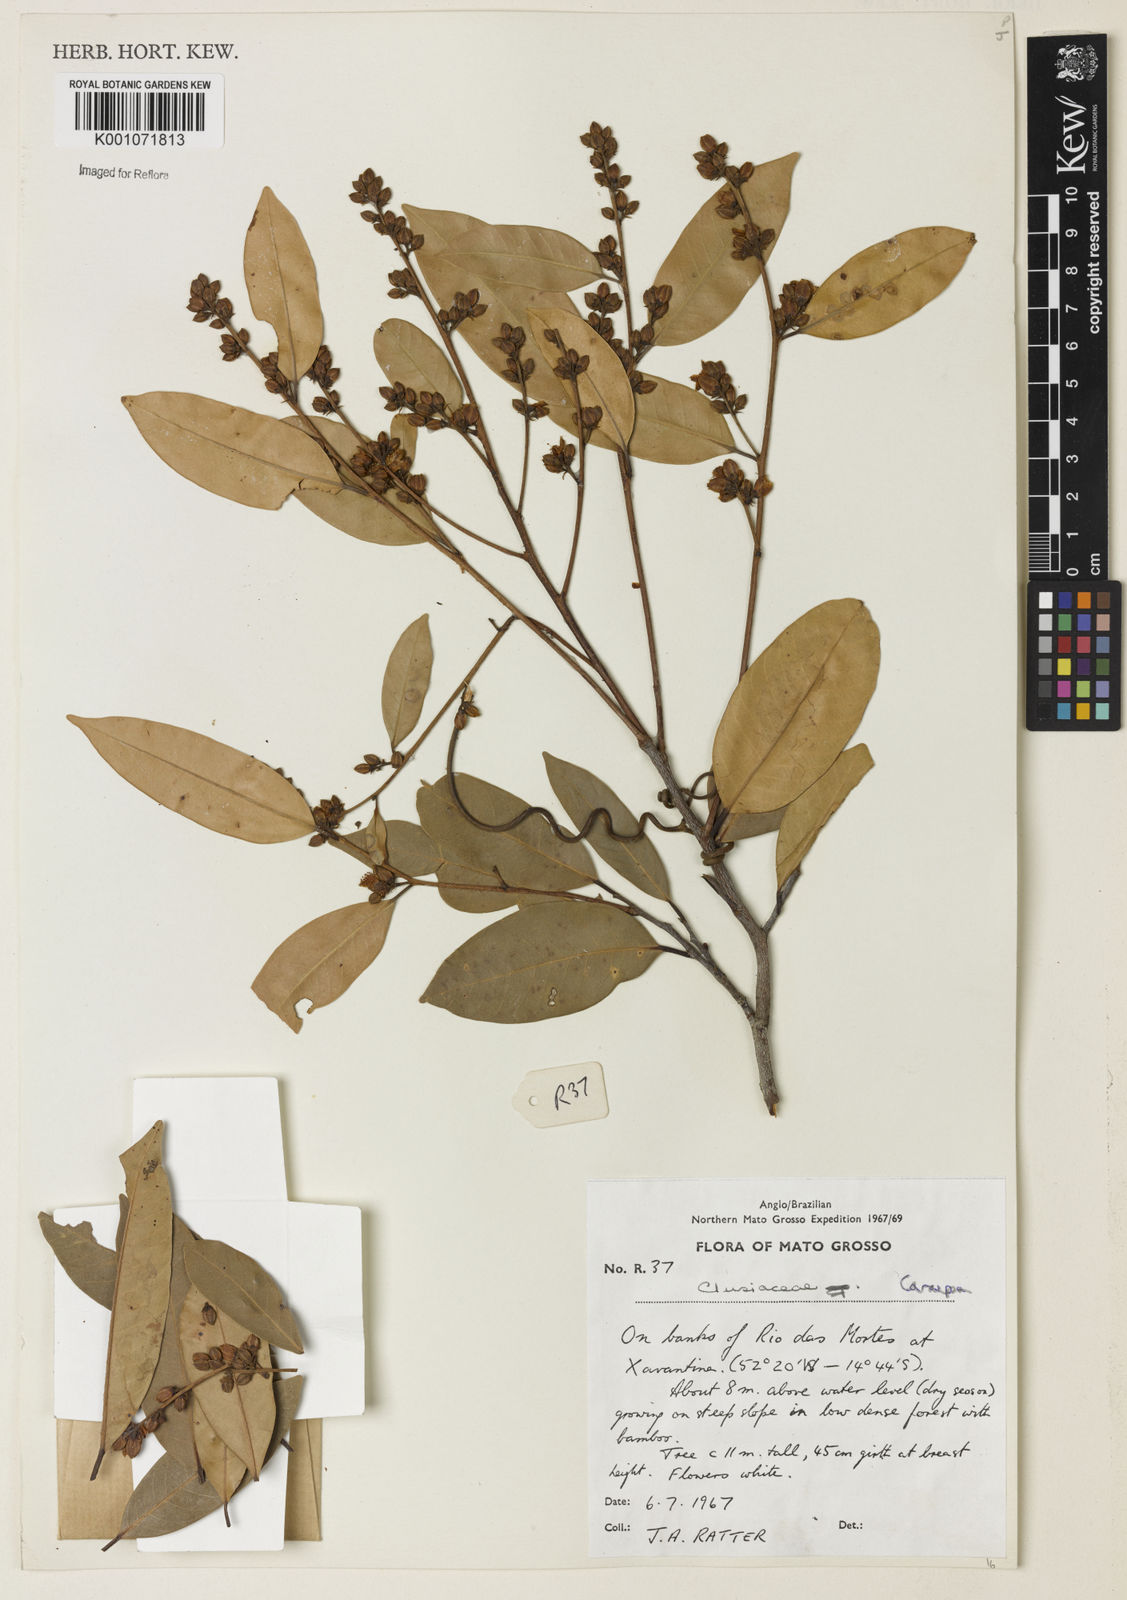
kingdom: Plantae
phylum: Tracheophyta
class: Magnoliopsida
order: Malpighiales
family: Calophyllaceae
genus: Caraipa
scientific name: Caraipa
